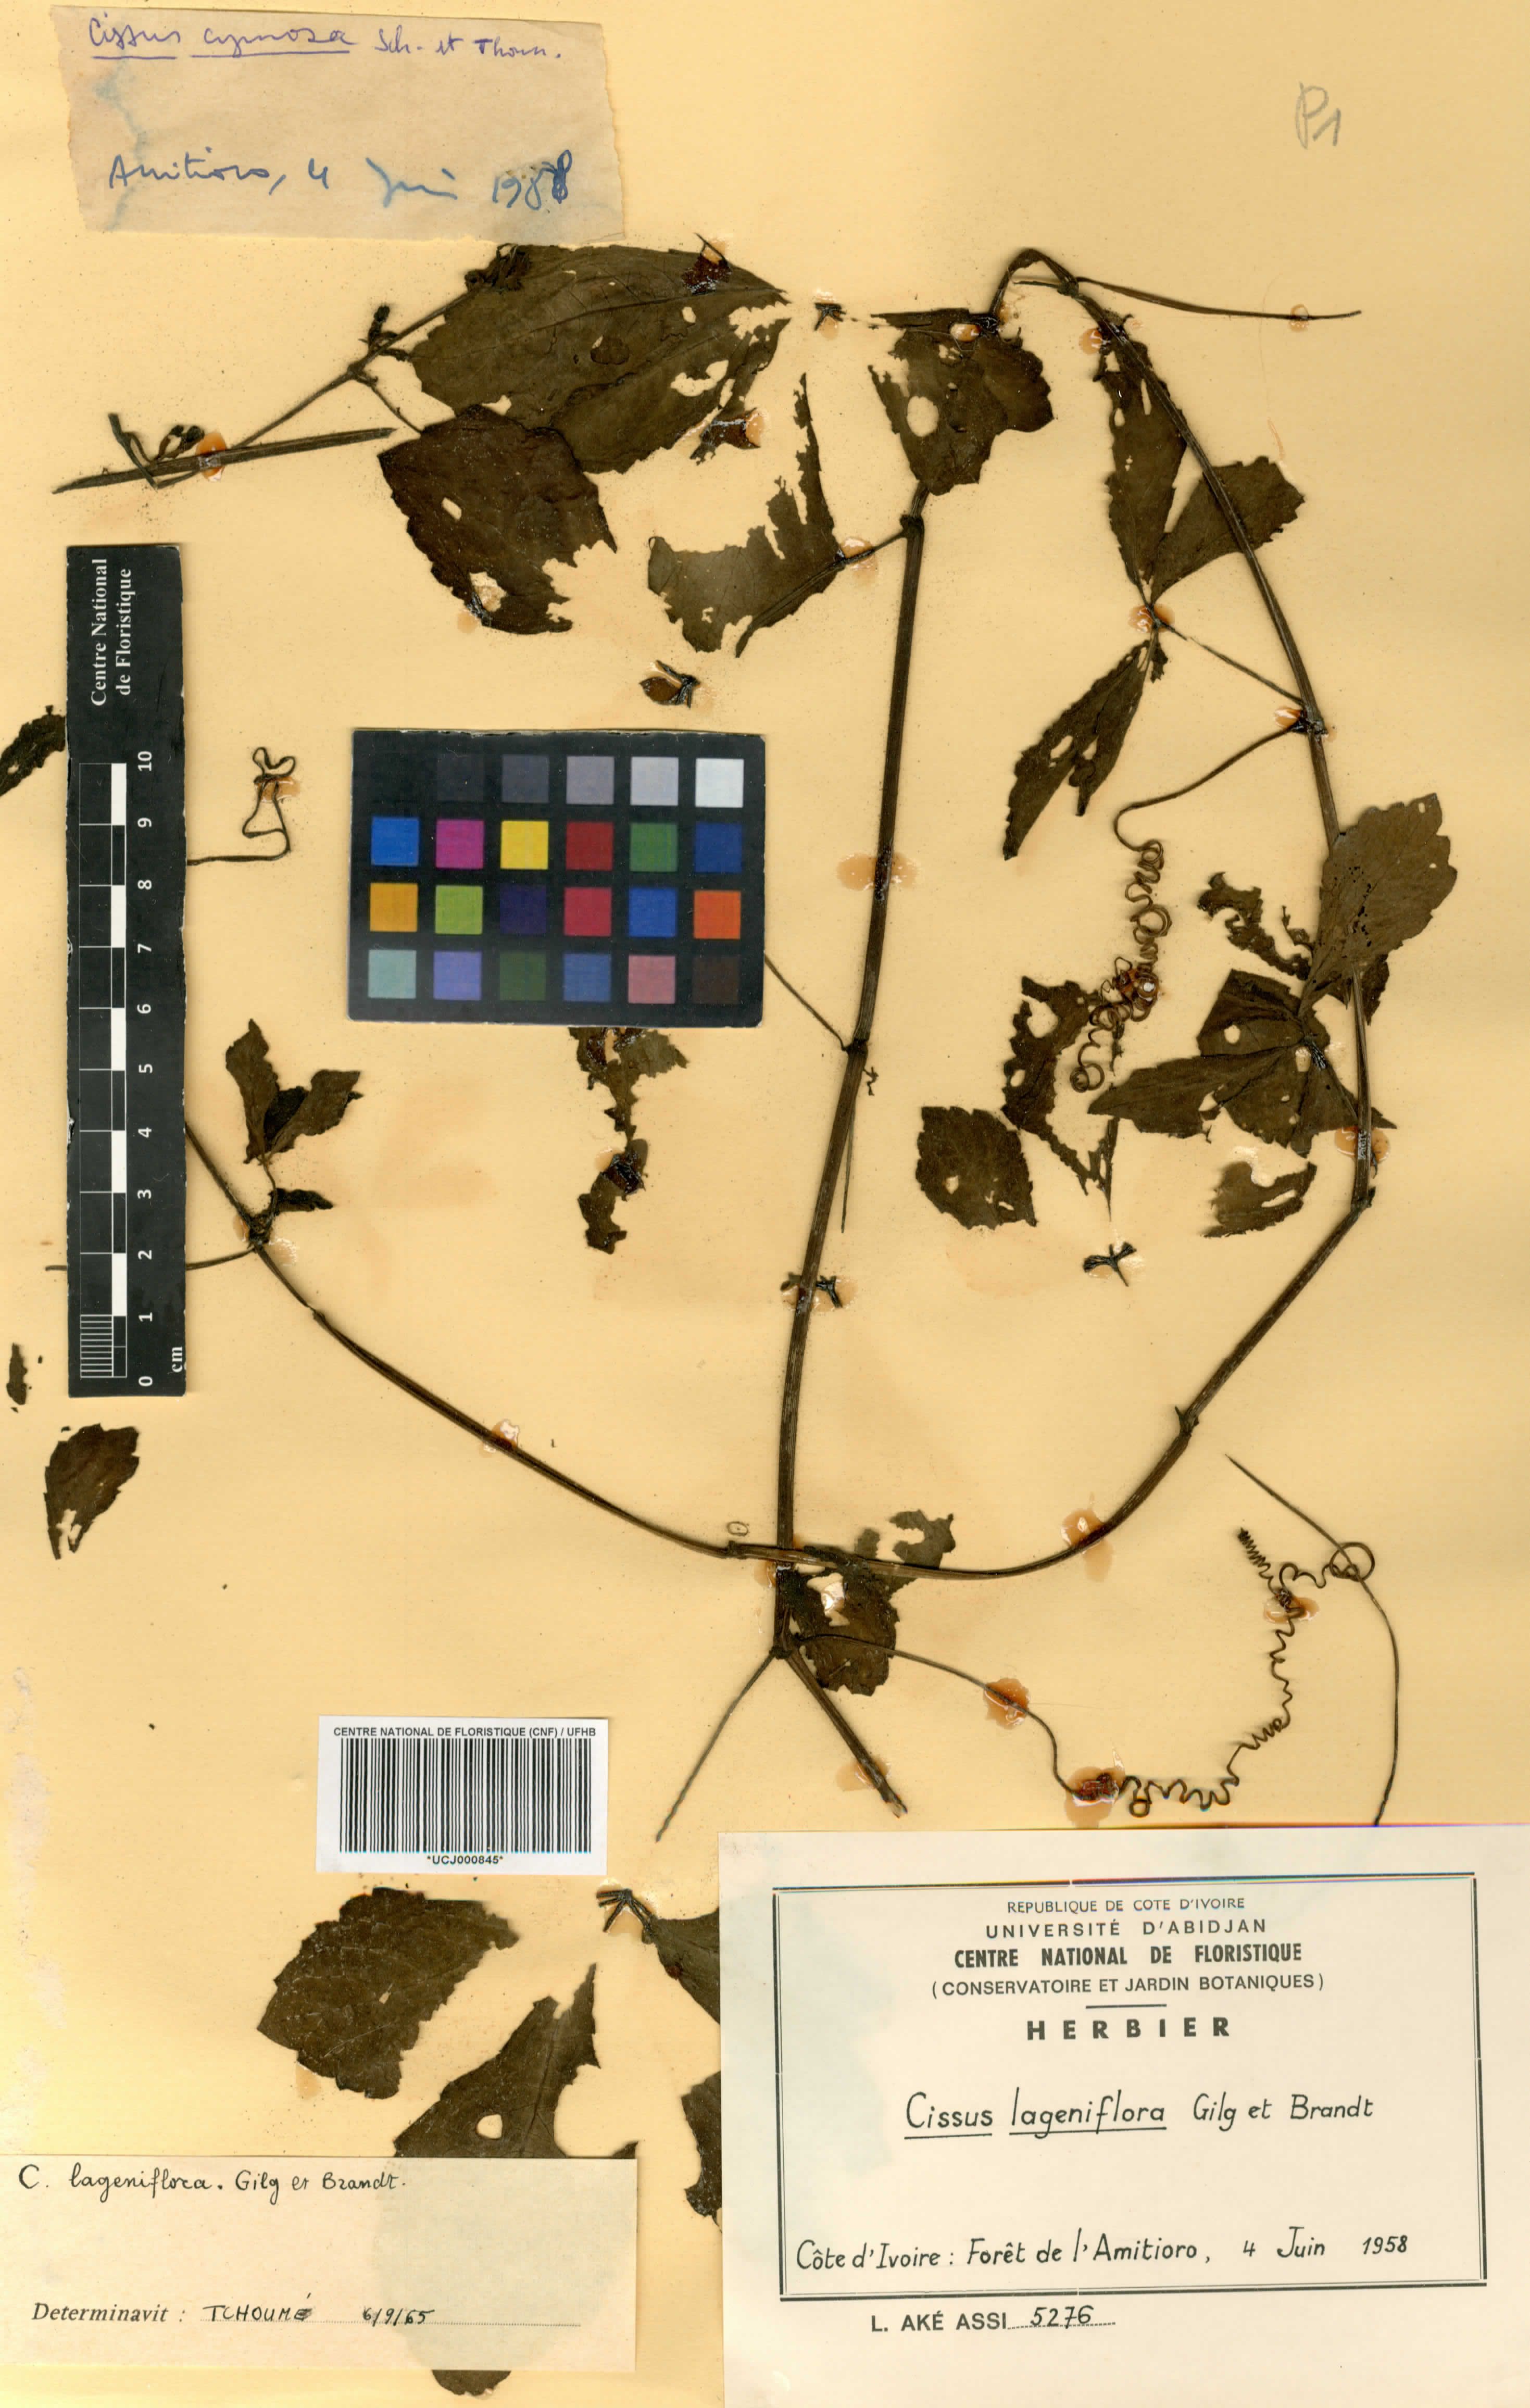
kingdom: Plantae
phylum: Tracheophyta
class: Magnoliopsida
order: Vitales
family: Vitaceae
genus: Cyphostemma
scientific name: Cyphostemma lageniflorum
